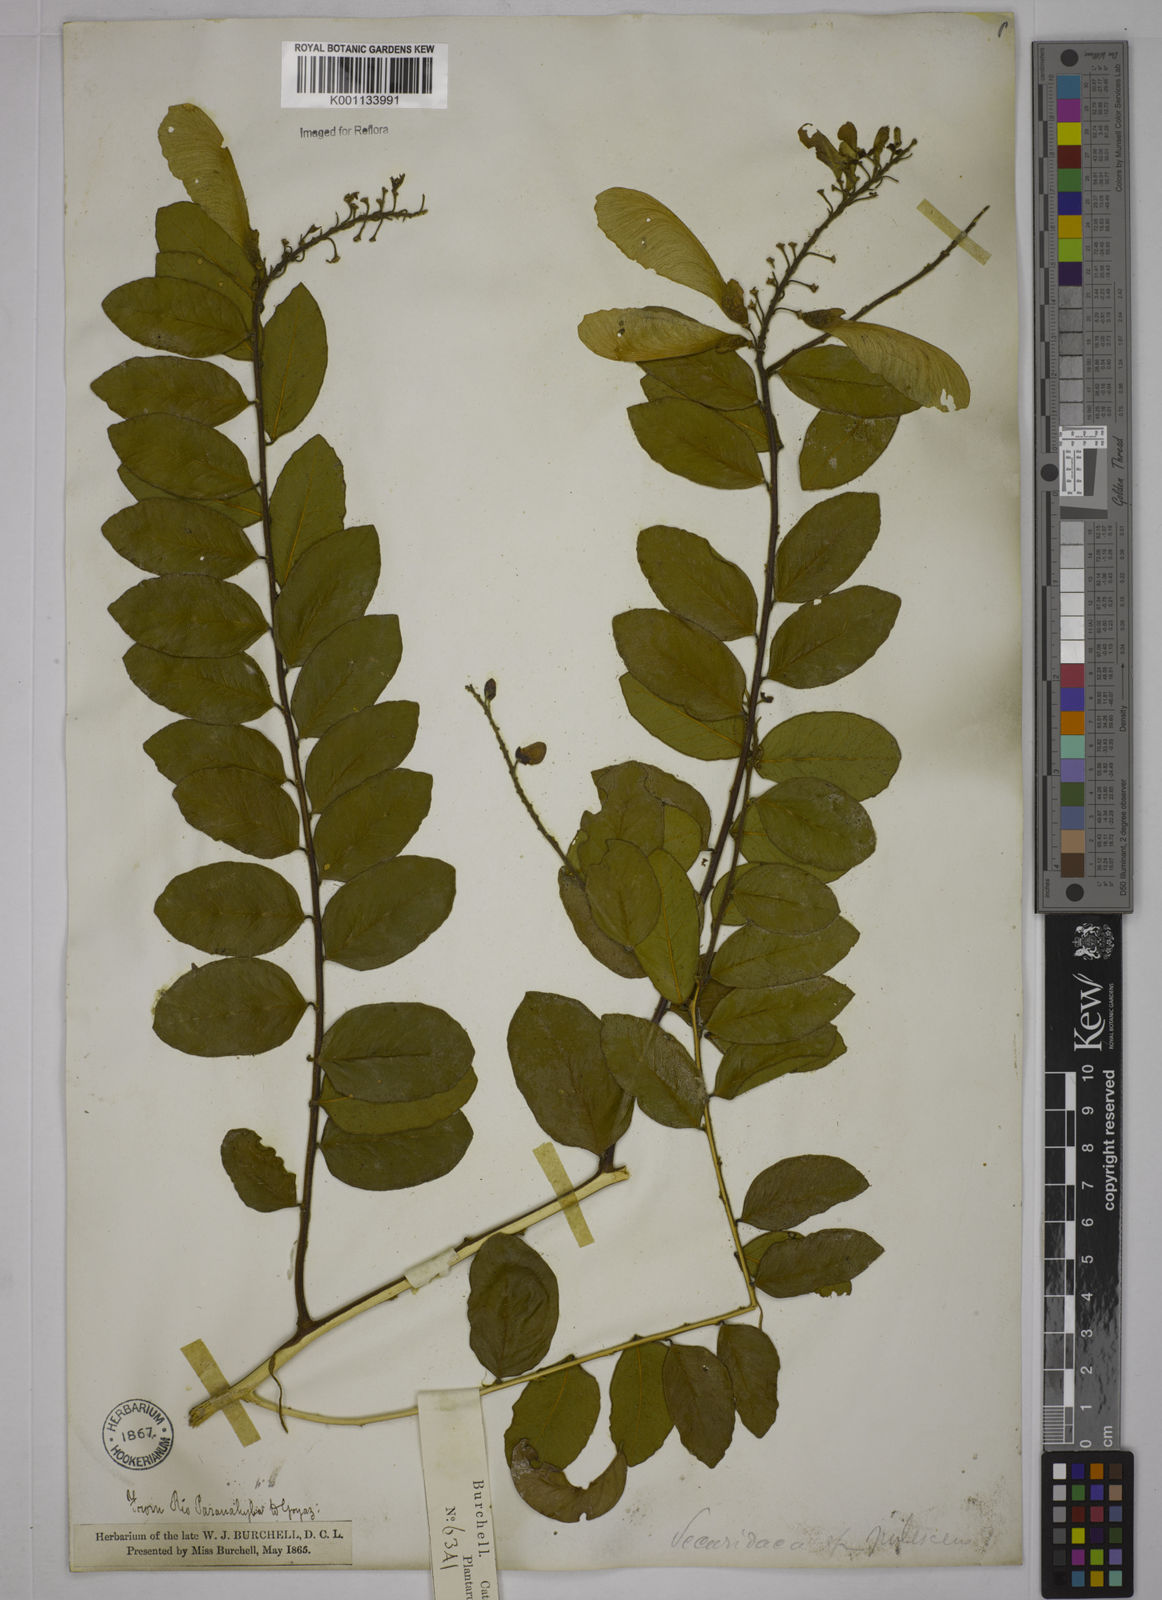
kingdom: Plantae
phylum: Tracheophyta
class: Magnoliopsida
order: Fabales
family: Polygalaceae
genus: Securidaca
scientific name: Securidaca diversifolia
